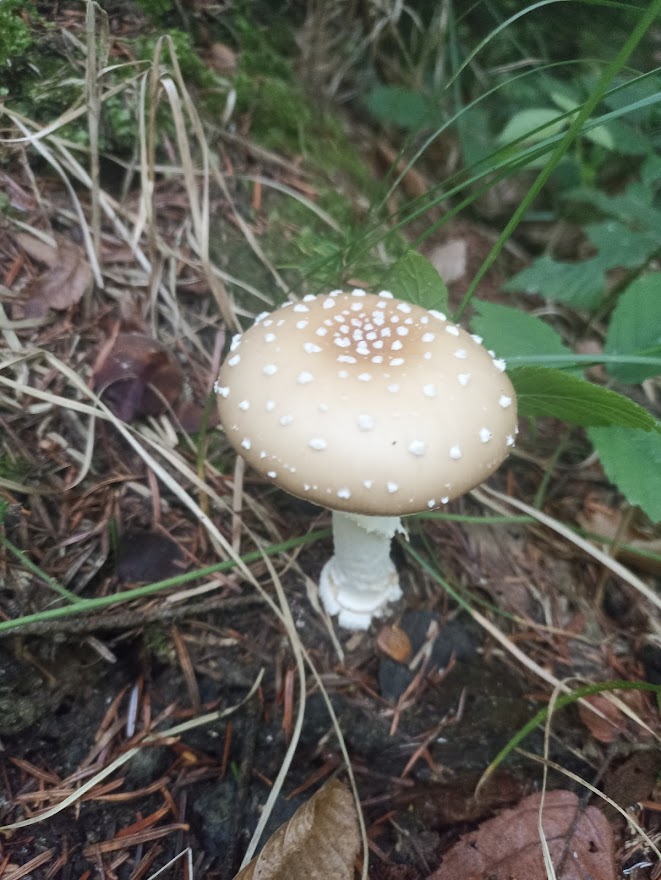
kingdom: Fungi
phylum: Basidiomycota
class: Agaricomycetes
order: Agaricales
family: Amanitaceae
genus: Amanita
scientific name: Amanita pantherina
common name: panter-fluesvamp
